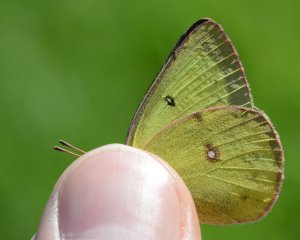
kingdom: Animalia
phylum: Arthropoda
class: Insecta
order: Lepidoptera
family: Pieridae
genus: Colias
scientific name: Colias philodice
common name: Clouded Sulphur
